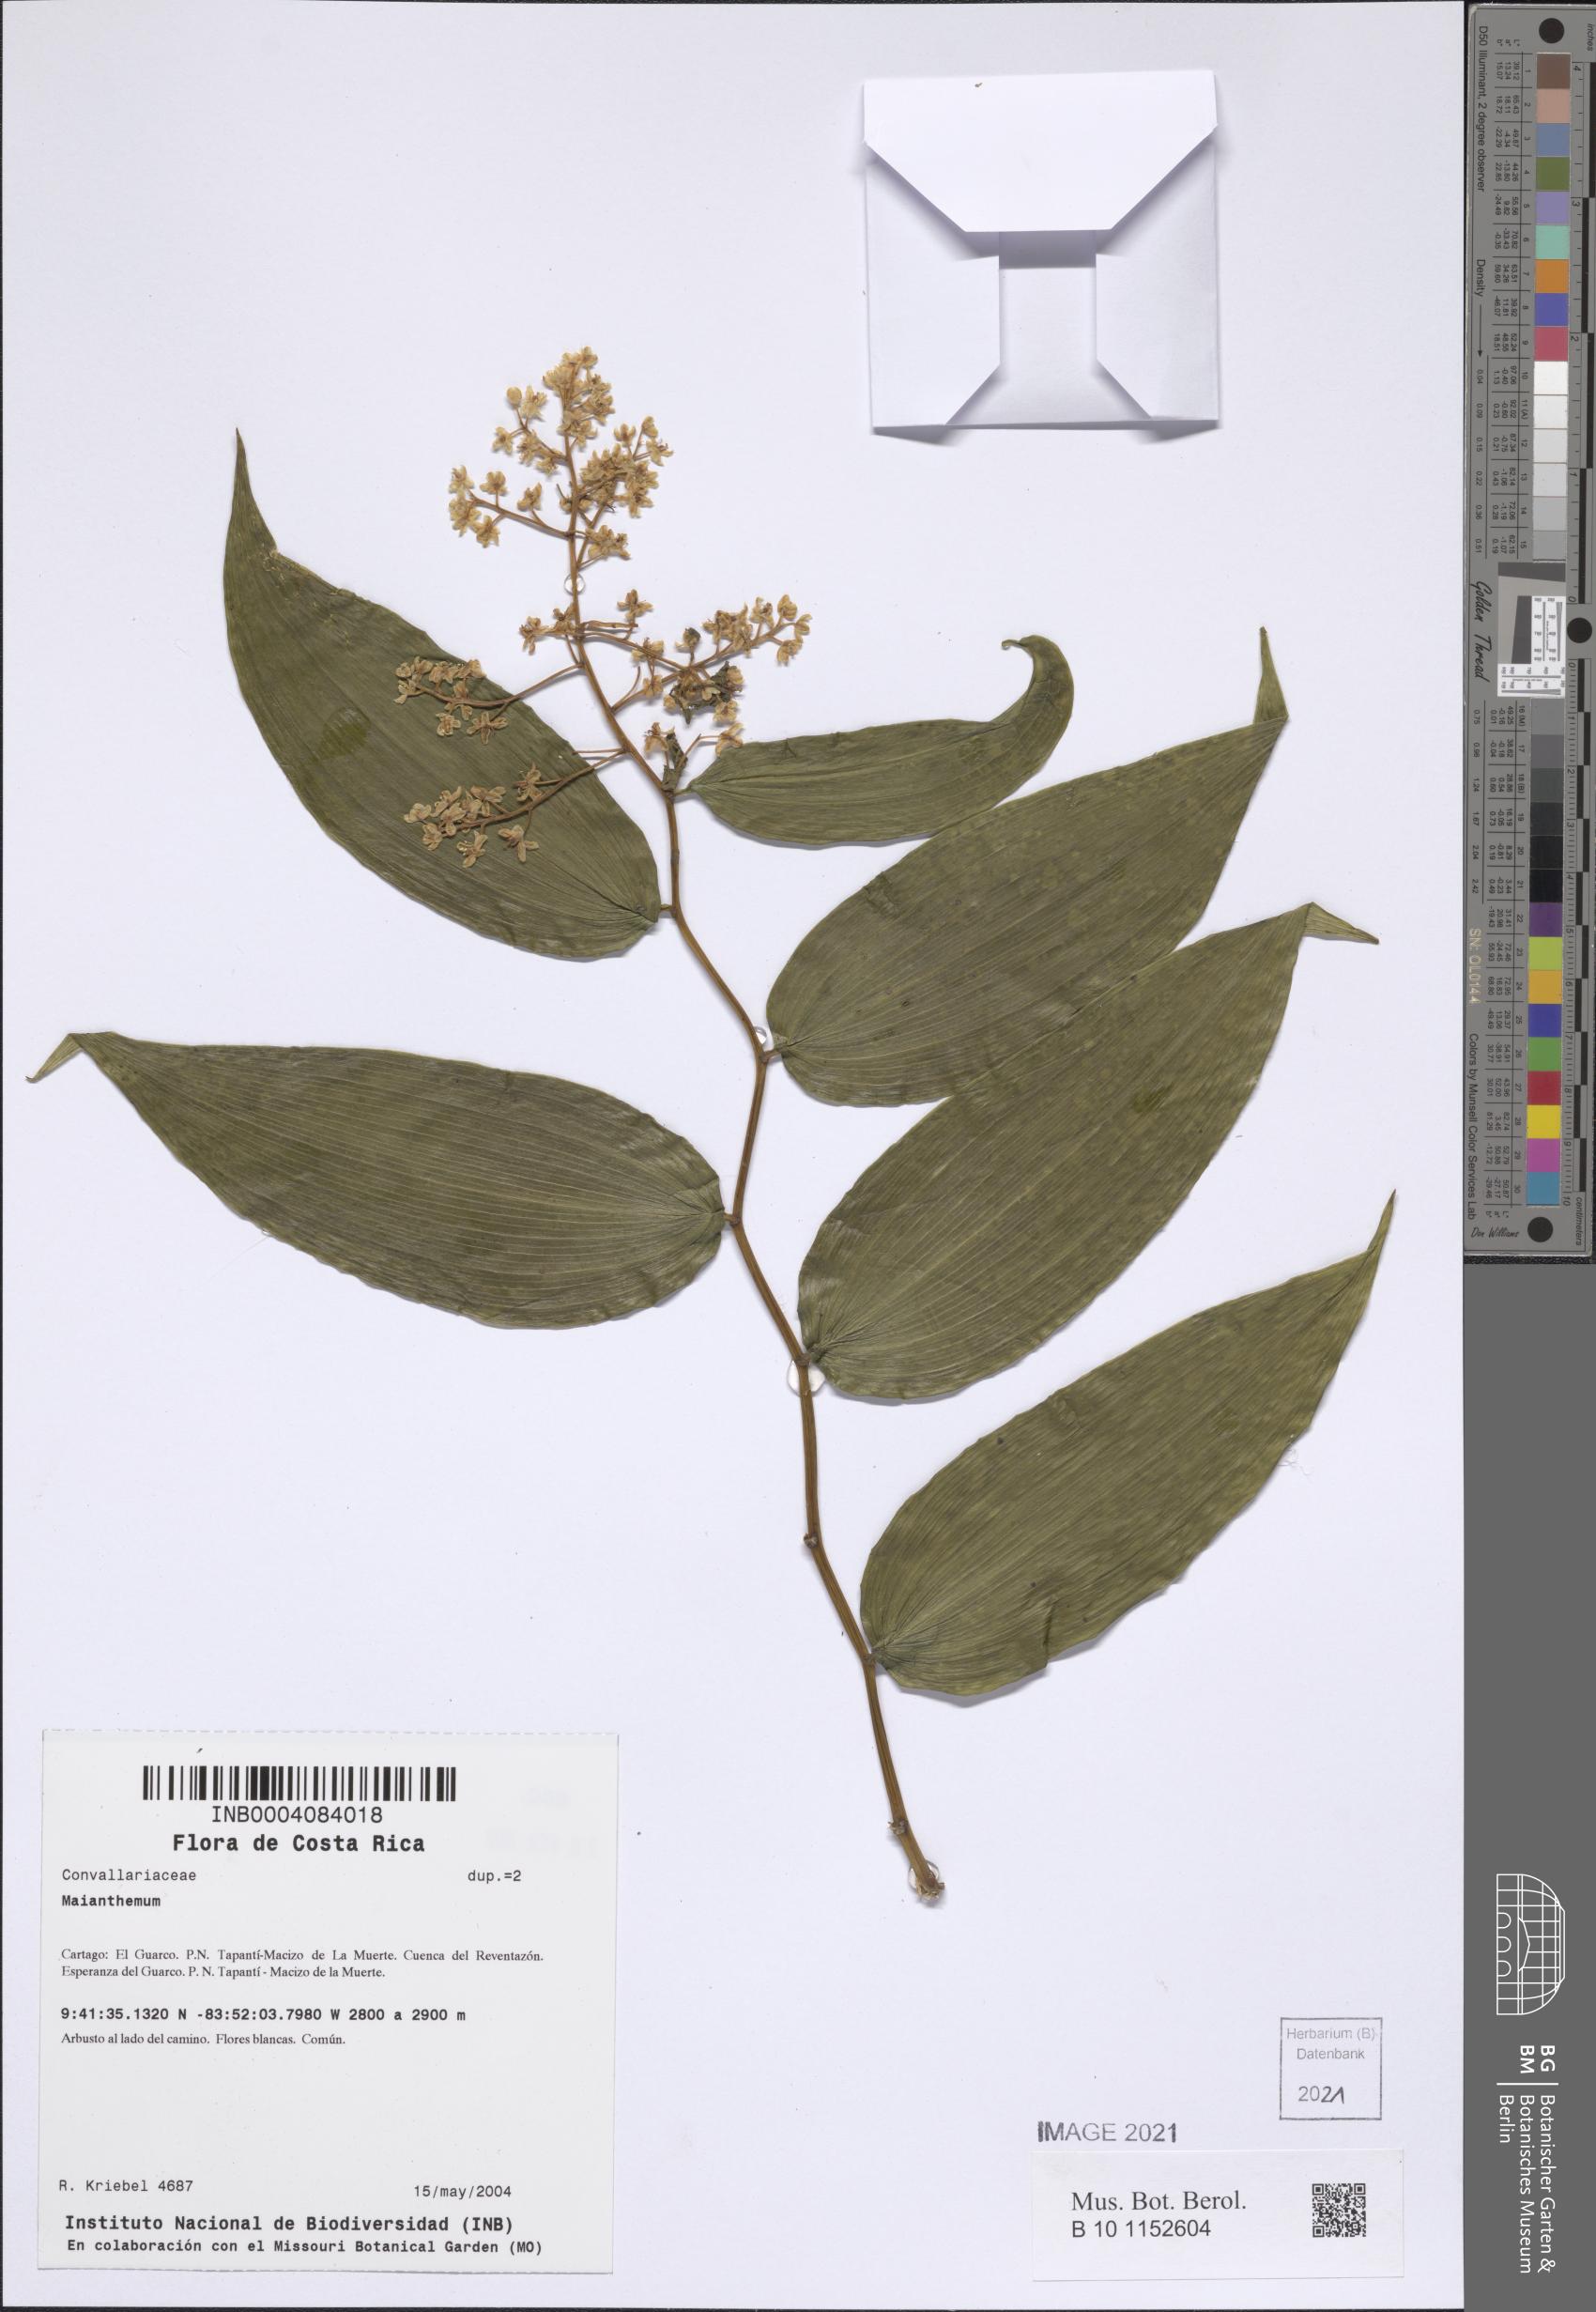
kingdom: Plantae
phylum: Tracheophyta
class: Liliopsida
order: Asparagales
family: Asparagaceae
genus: Maianthemum
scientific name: Maianthemum
